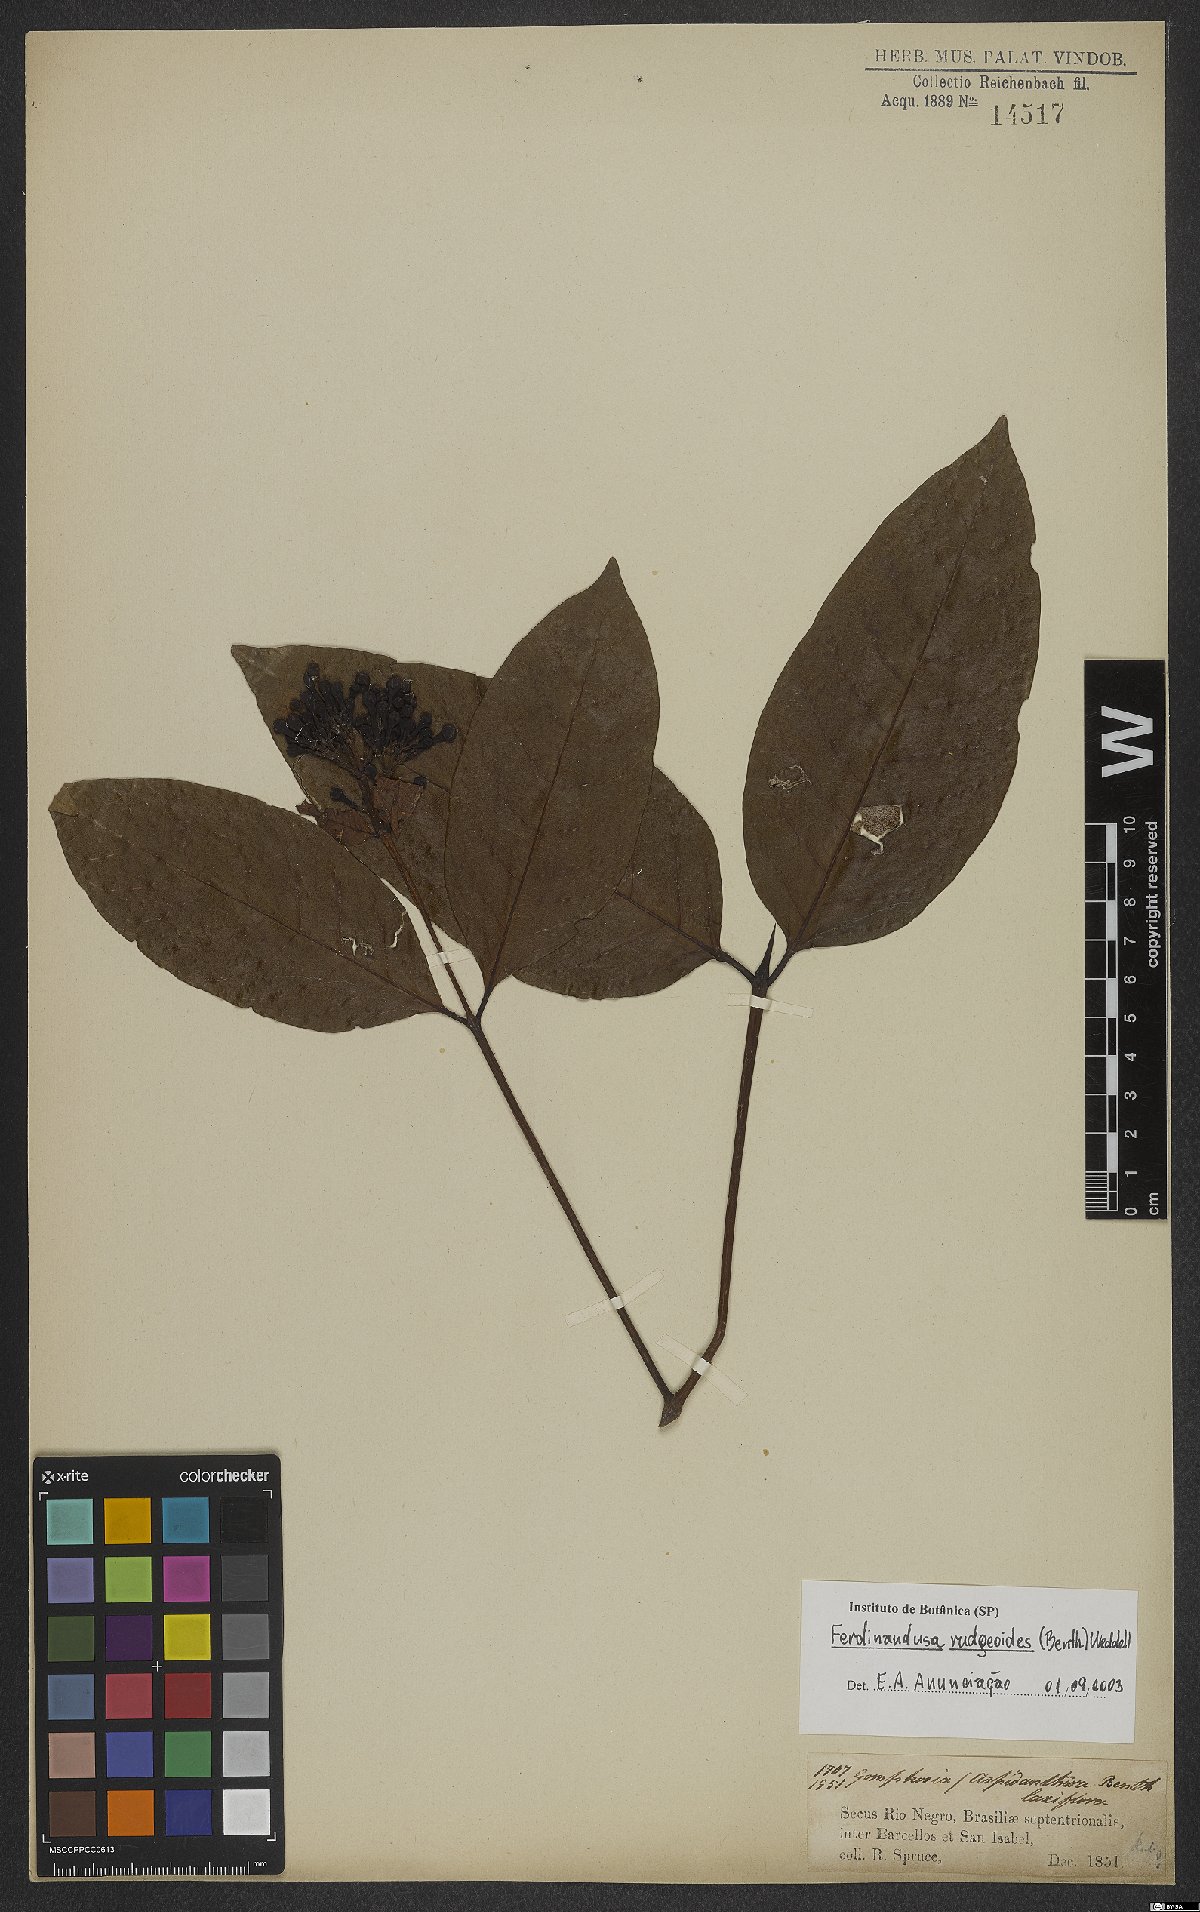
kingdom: Plantae
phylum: Tracheophyta
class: Magnoliopsida
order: Gentianales
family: Rubiaceae
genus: Ferdinandusa
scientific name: Ferdinandusa rudgeoides
